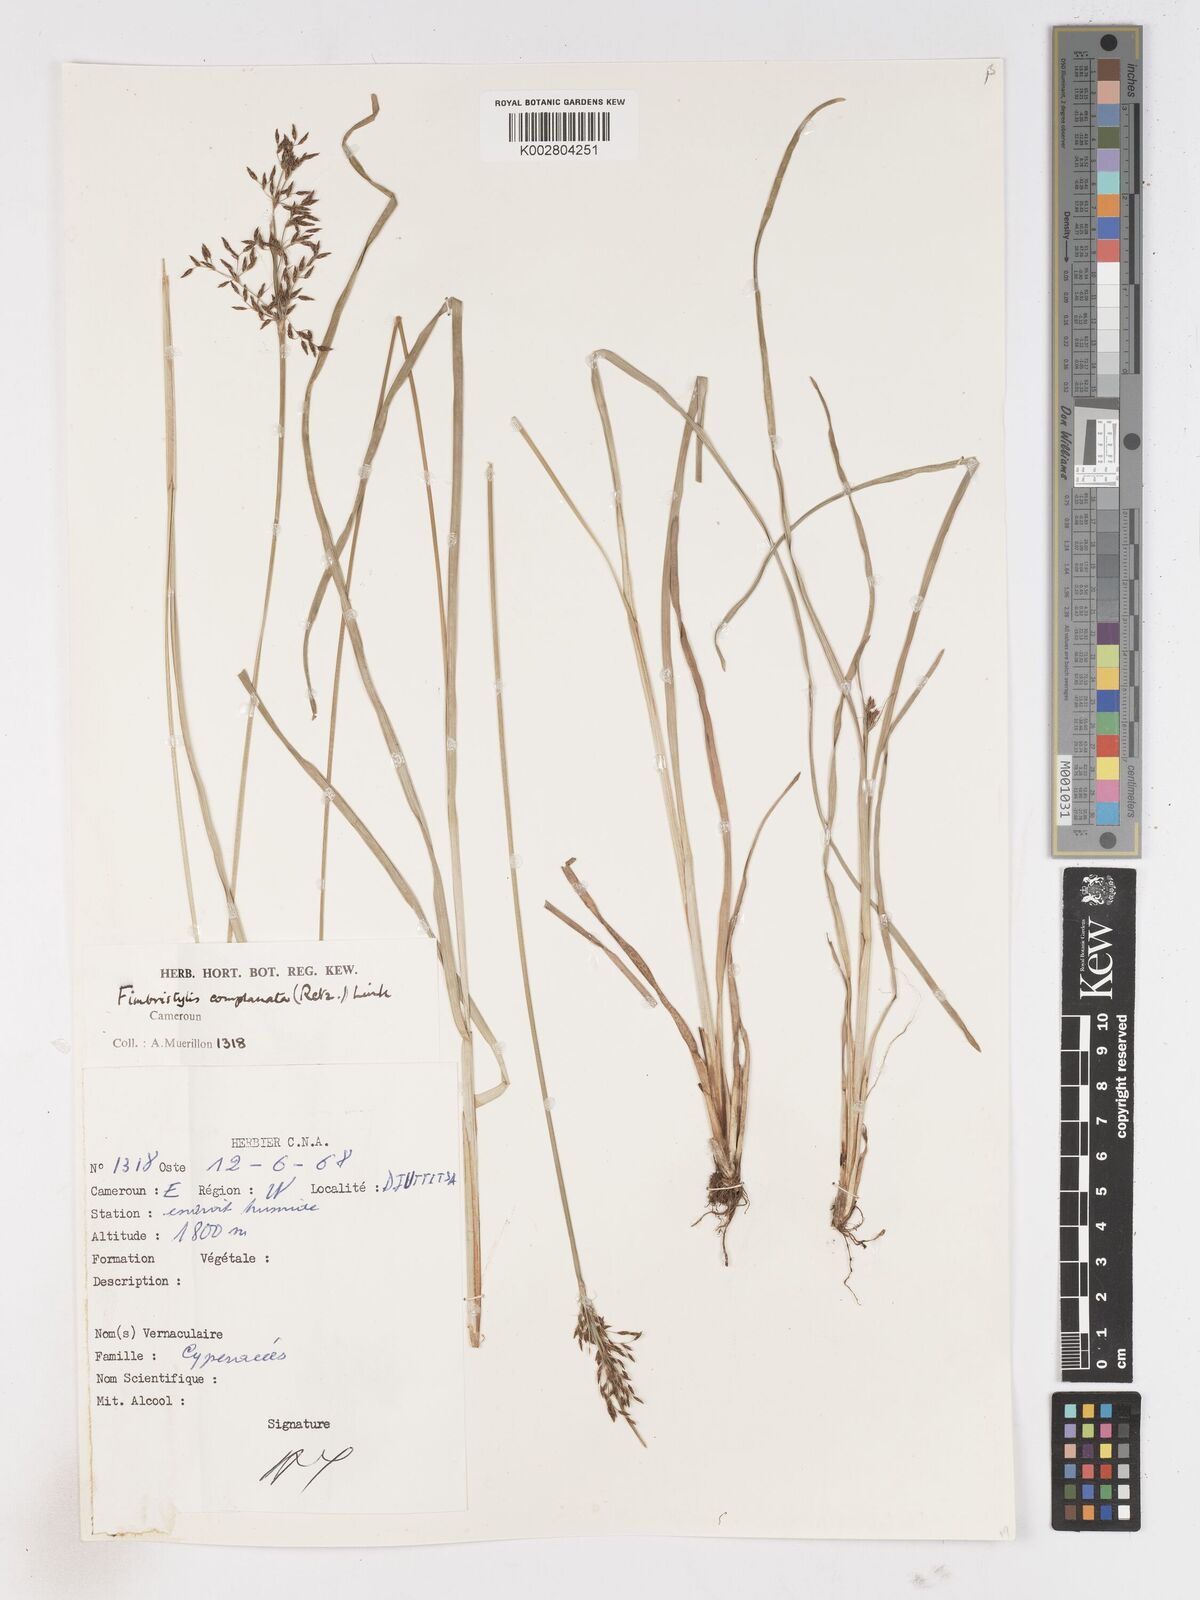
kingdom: Plantae
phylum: Tracheophyta
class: Liliopsida
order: Poales
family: Cyperaceae
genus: Fimbristylis
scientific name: Fimbristylis complanata
